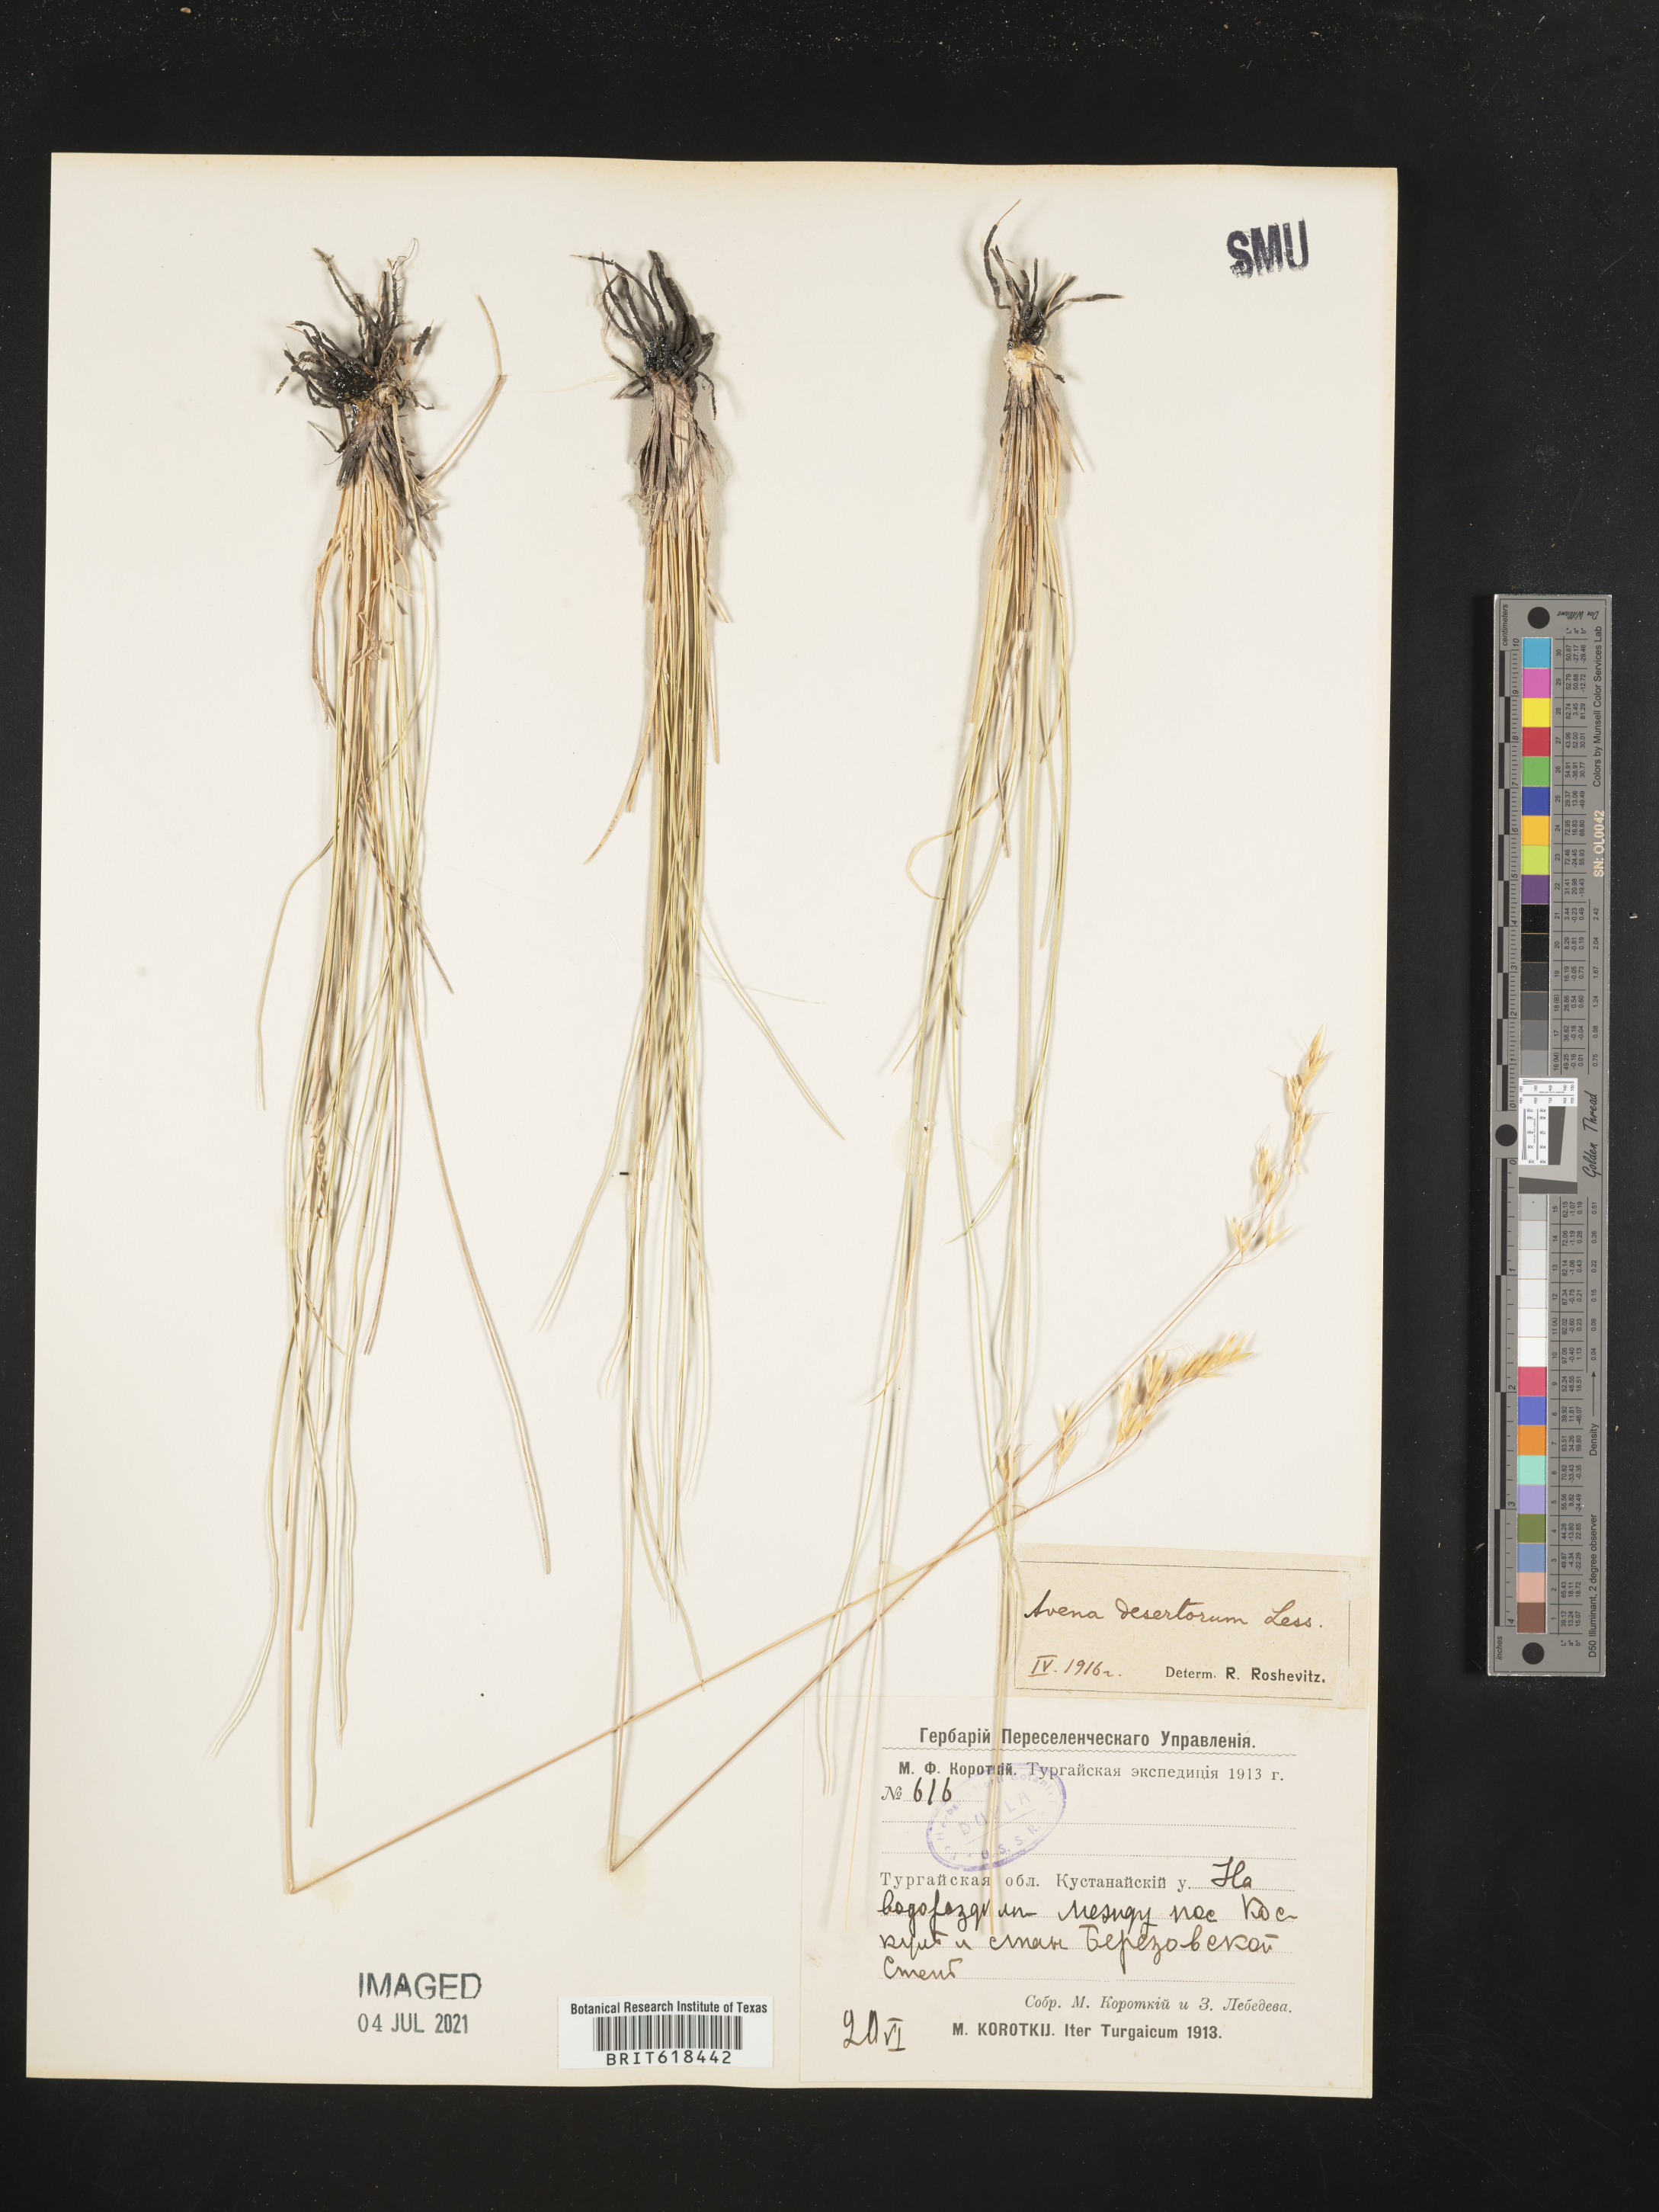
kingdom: Plantae
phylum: Tracheophyta
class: Liliopsida
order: Poales
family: Poaceae
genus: Helictotrichon
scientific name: Helictotrichon desertorum
